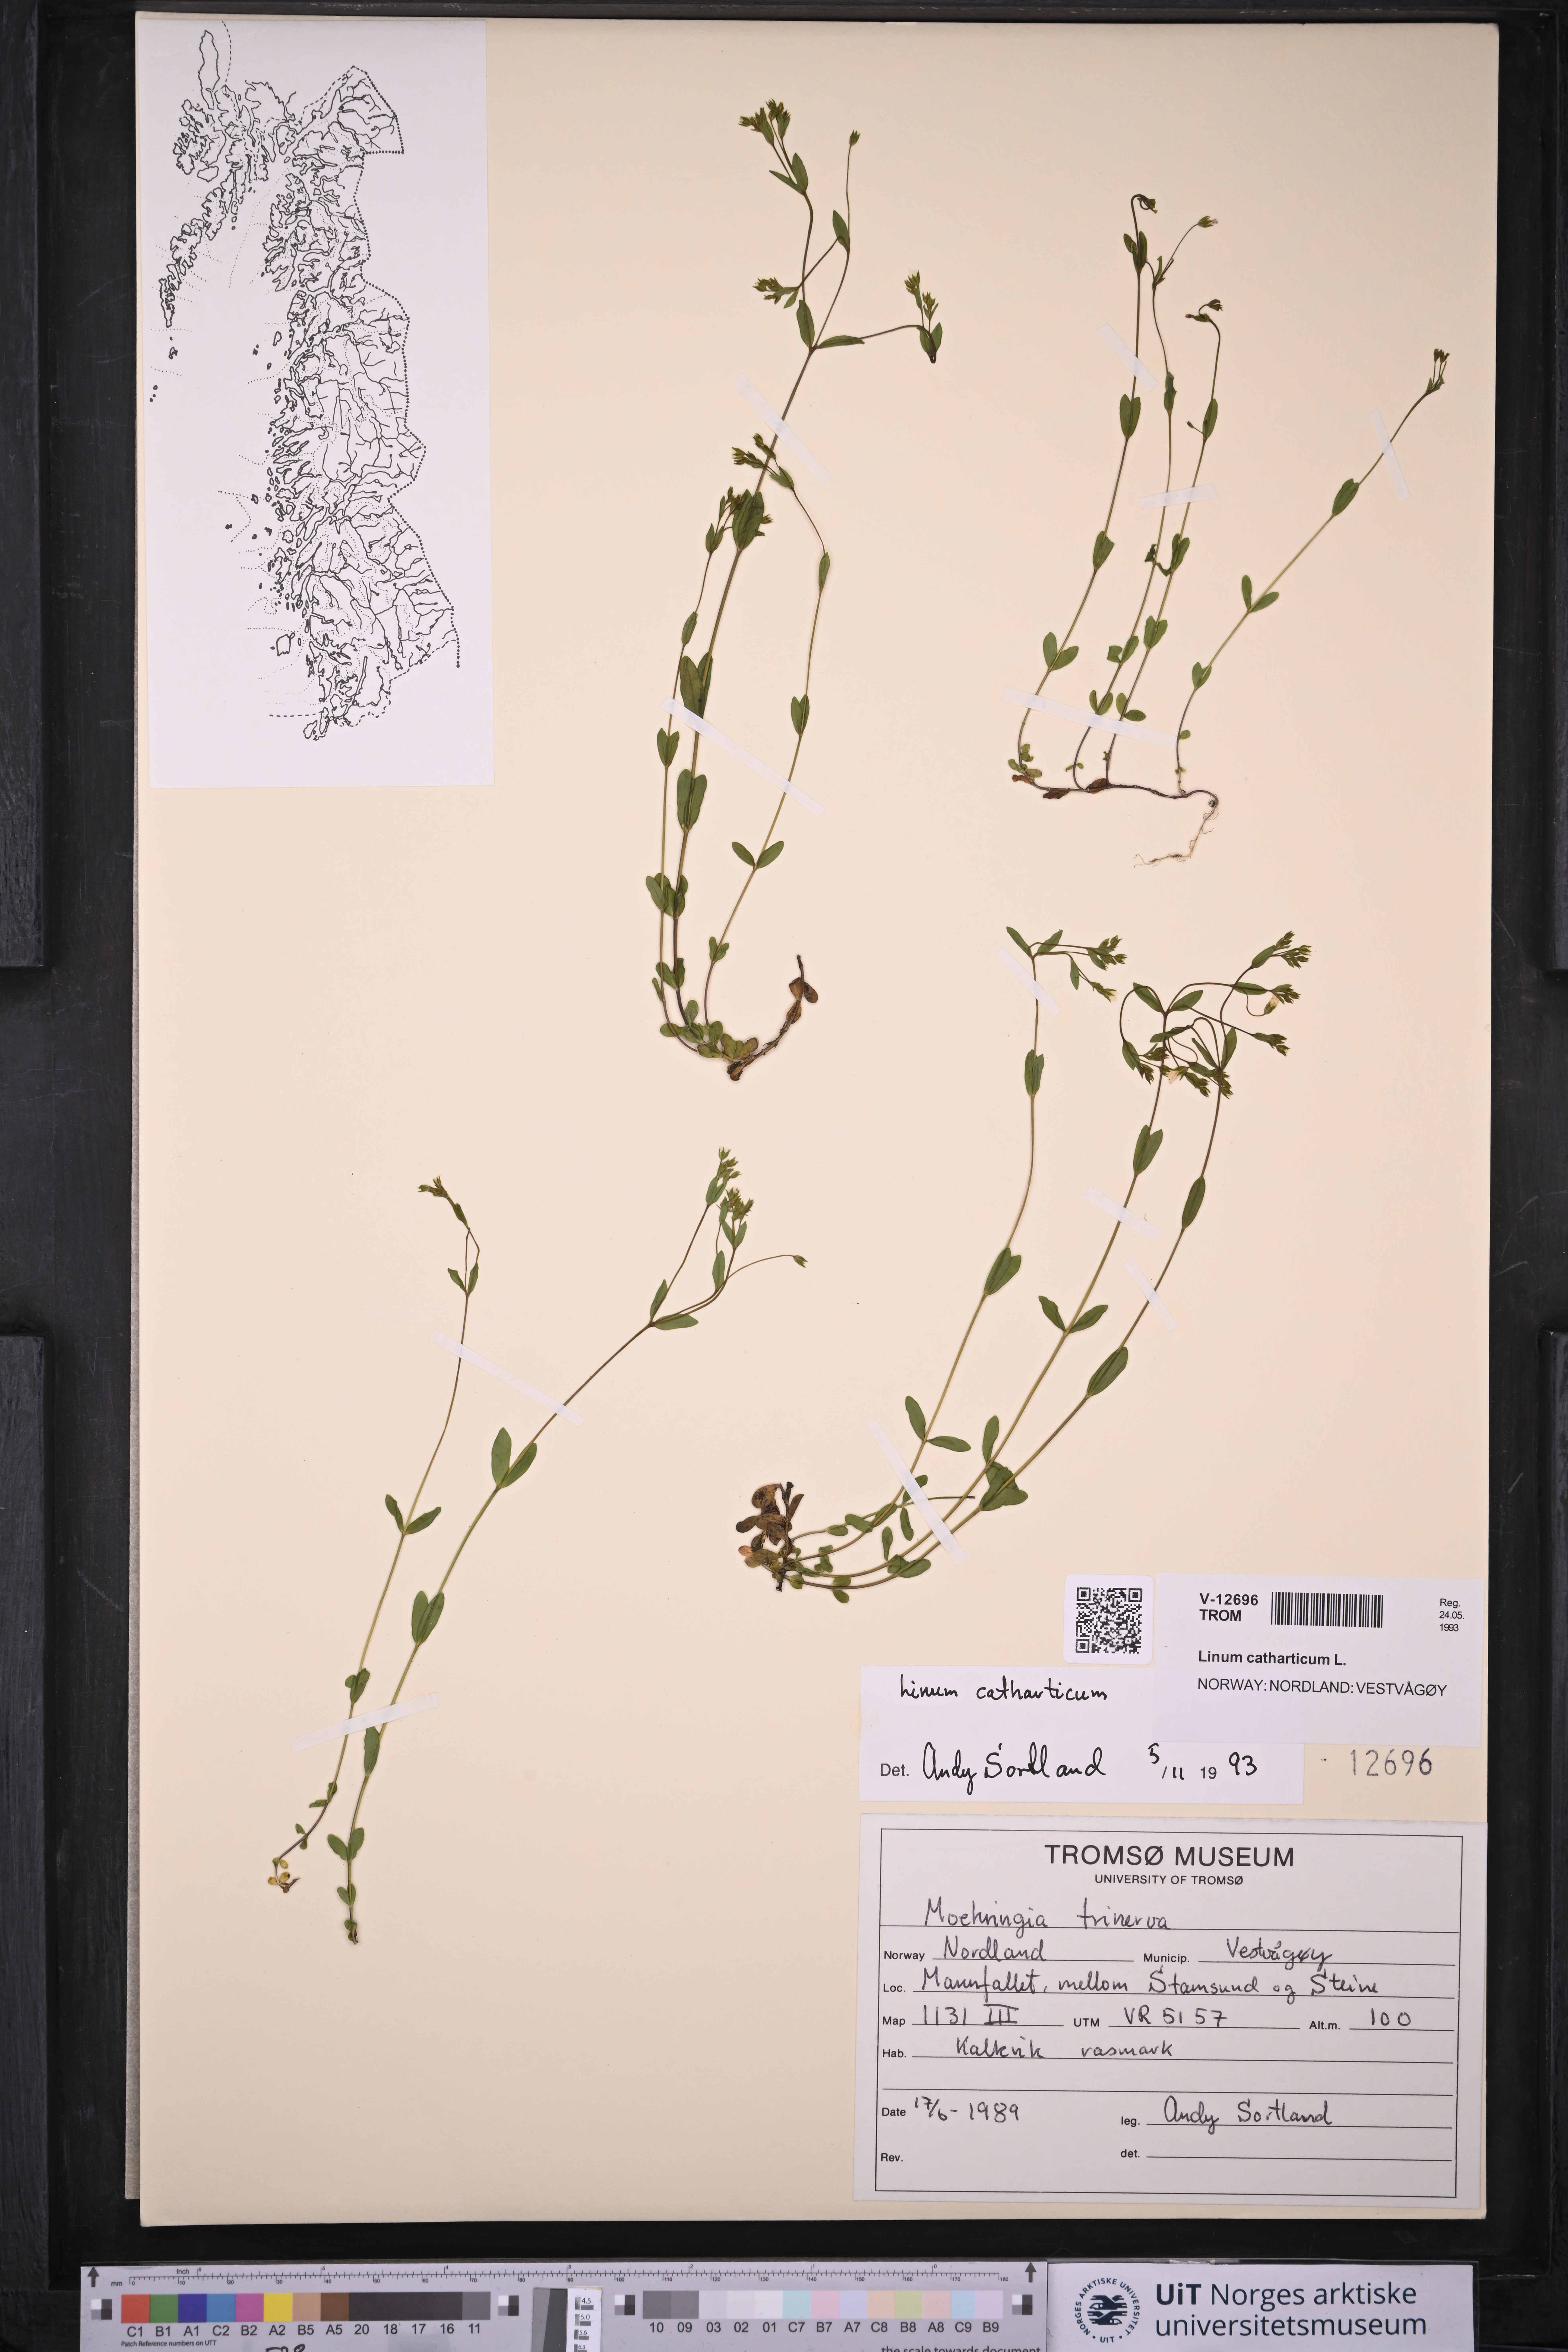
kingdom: Plantae
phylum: Tracheophyta
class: Magnoliopsida
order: Malpighiales
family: Linaceae
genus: Linum
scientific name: Linum catharticum
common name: Fairy flax
